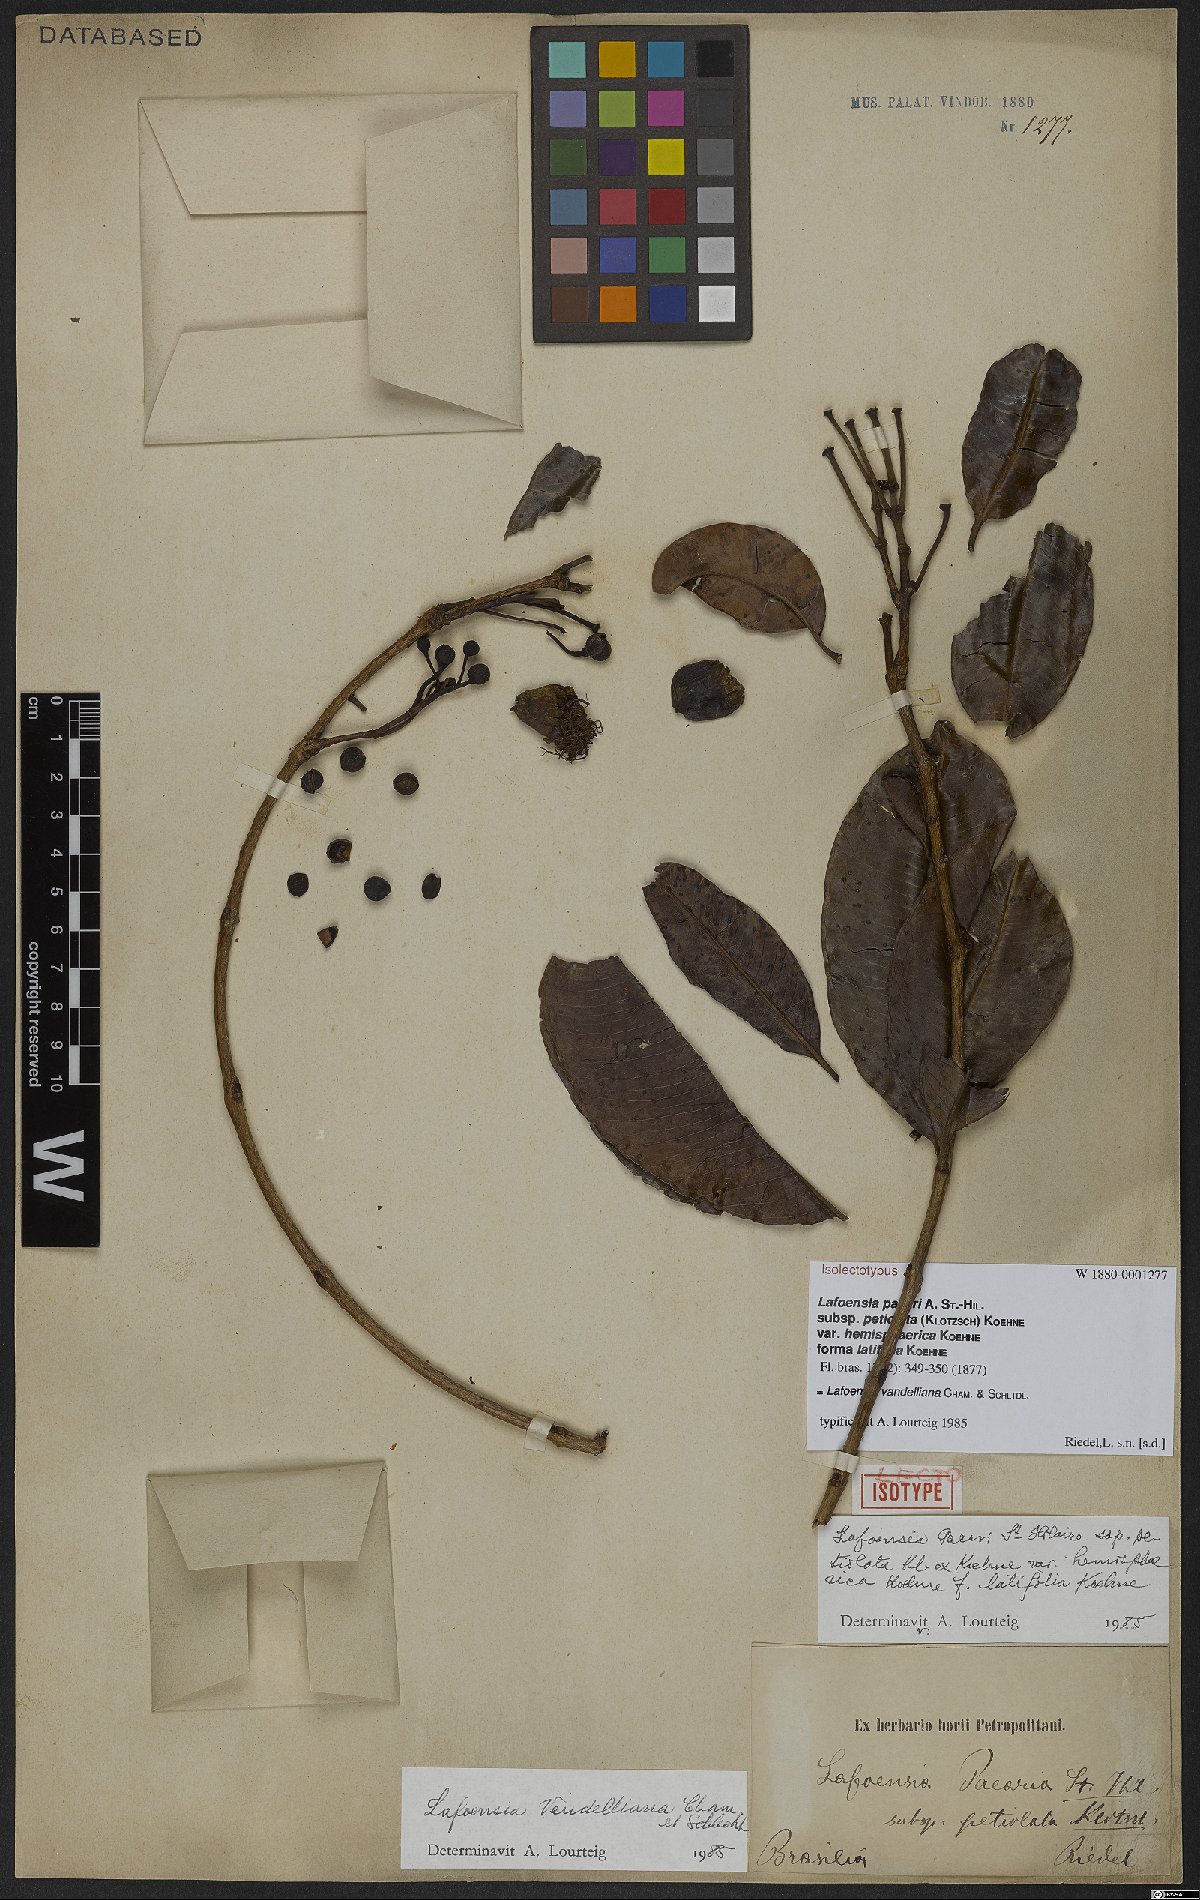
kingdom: Plantae
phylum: Tracheophyta
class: Magnoliopsida
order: Myrtales
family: Lythraceae
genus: Lafoensia
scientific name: Lafoensia vandelliana
